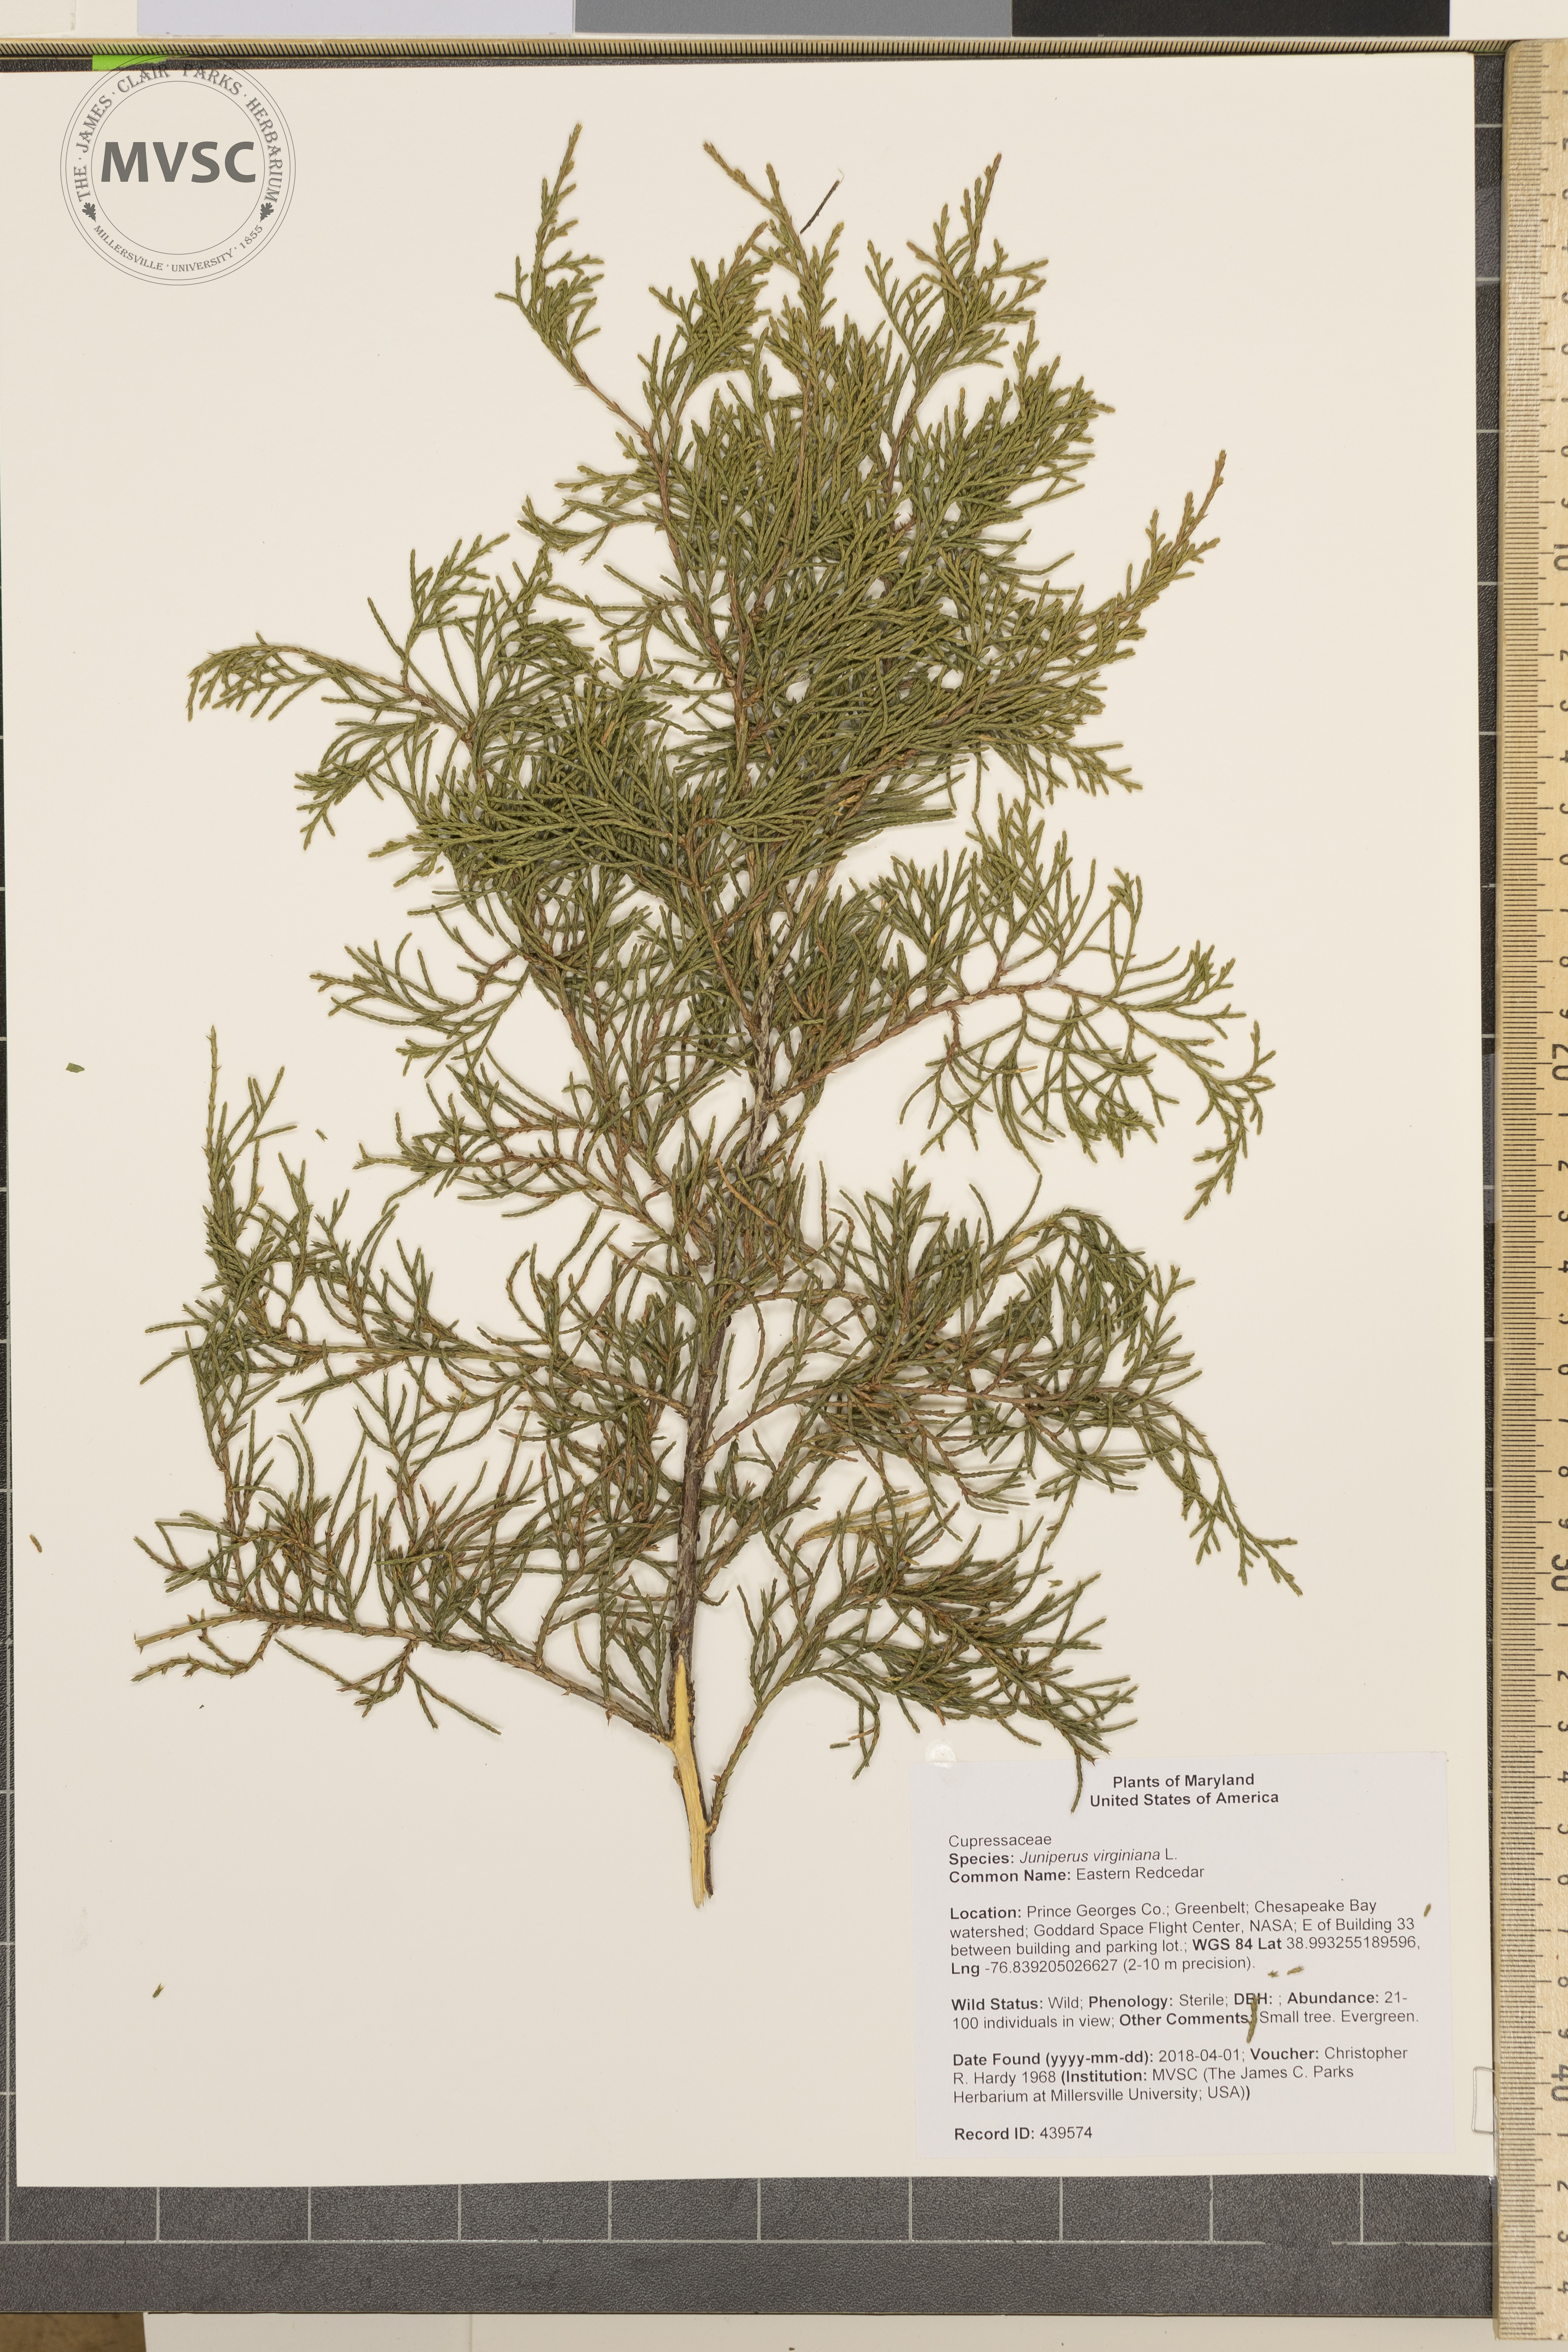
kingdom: Plantae
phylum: Tracheophyta
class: Pinopsida
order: Pinales
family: Cupressaceae
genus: Juniperus
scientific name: Juniperus virginiana
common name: Eastern Redcedar
